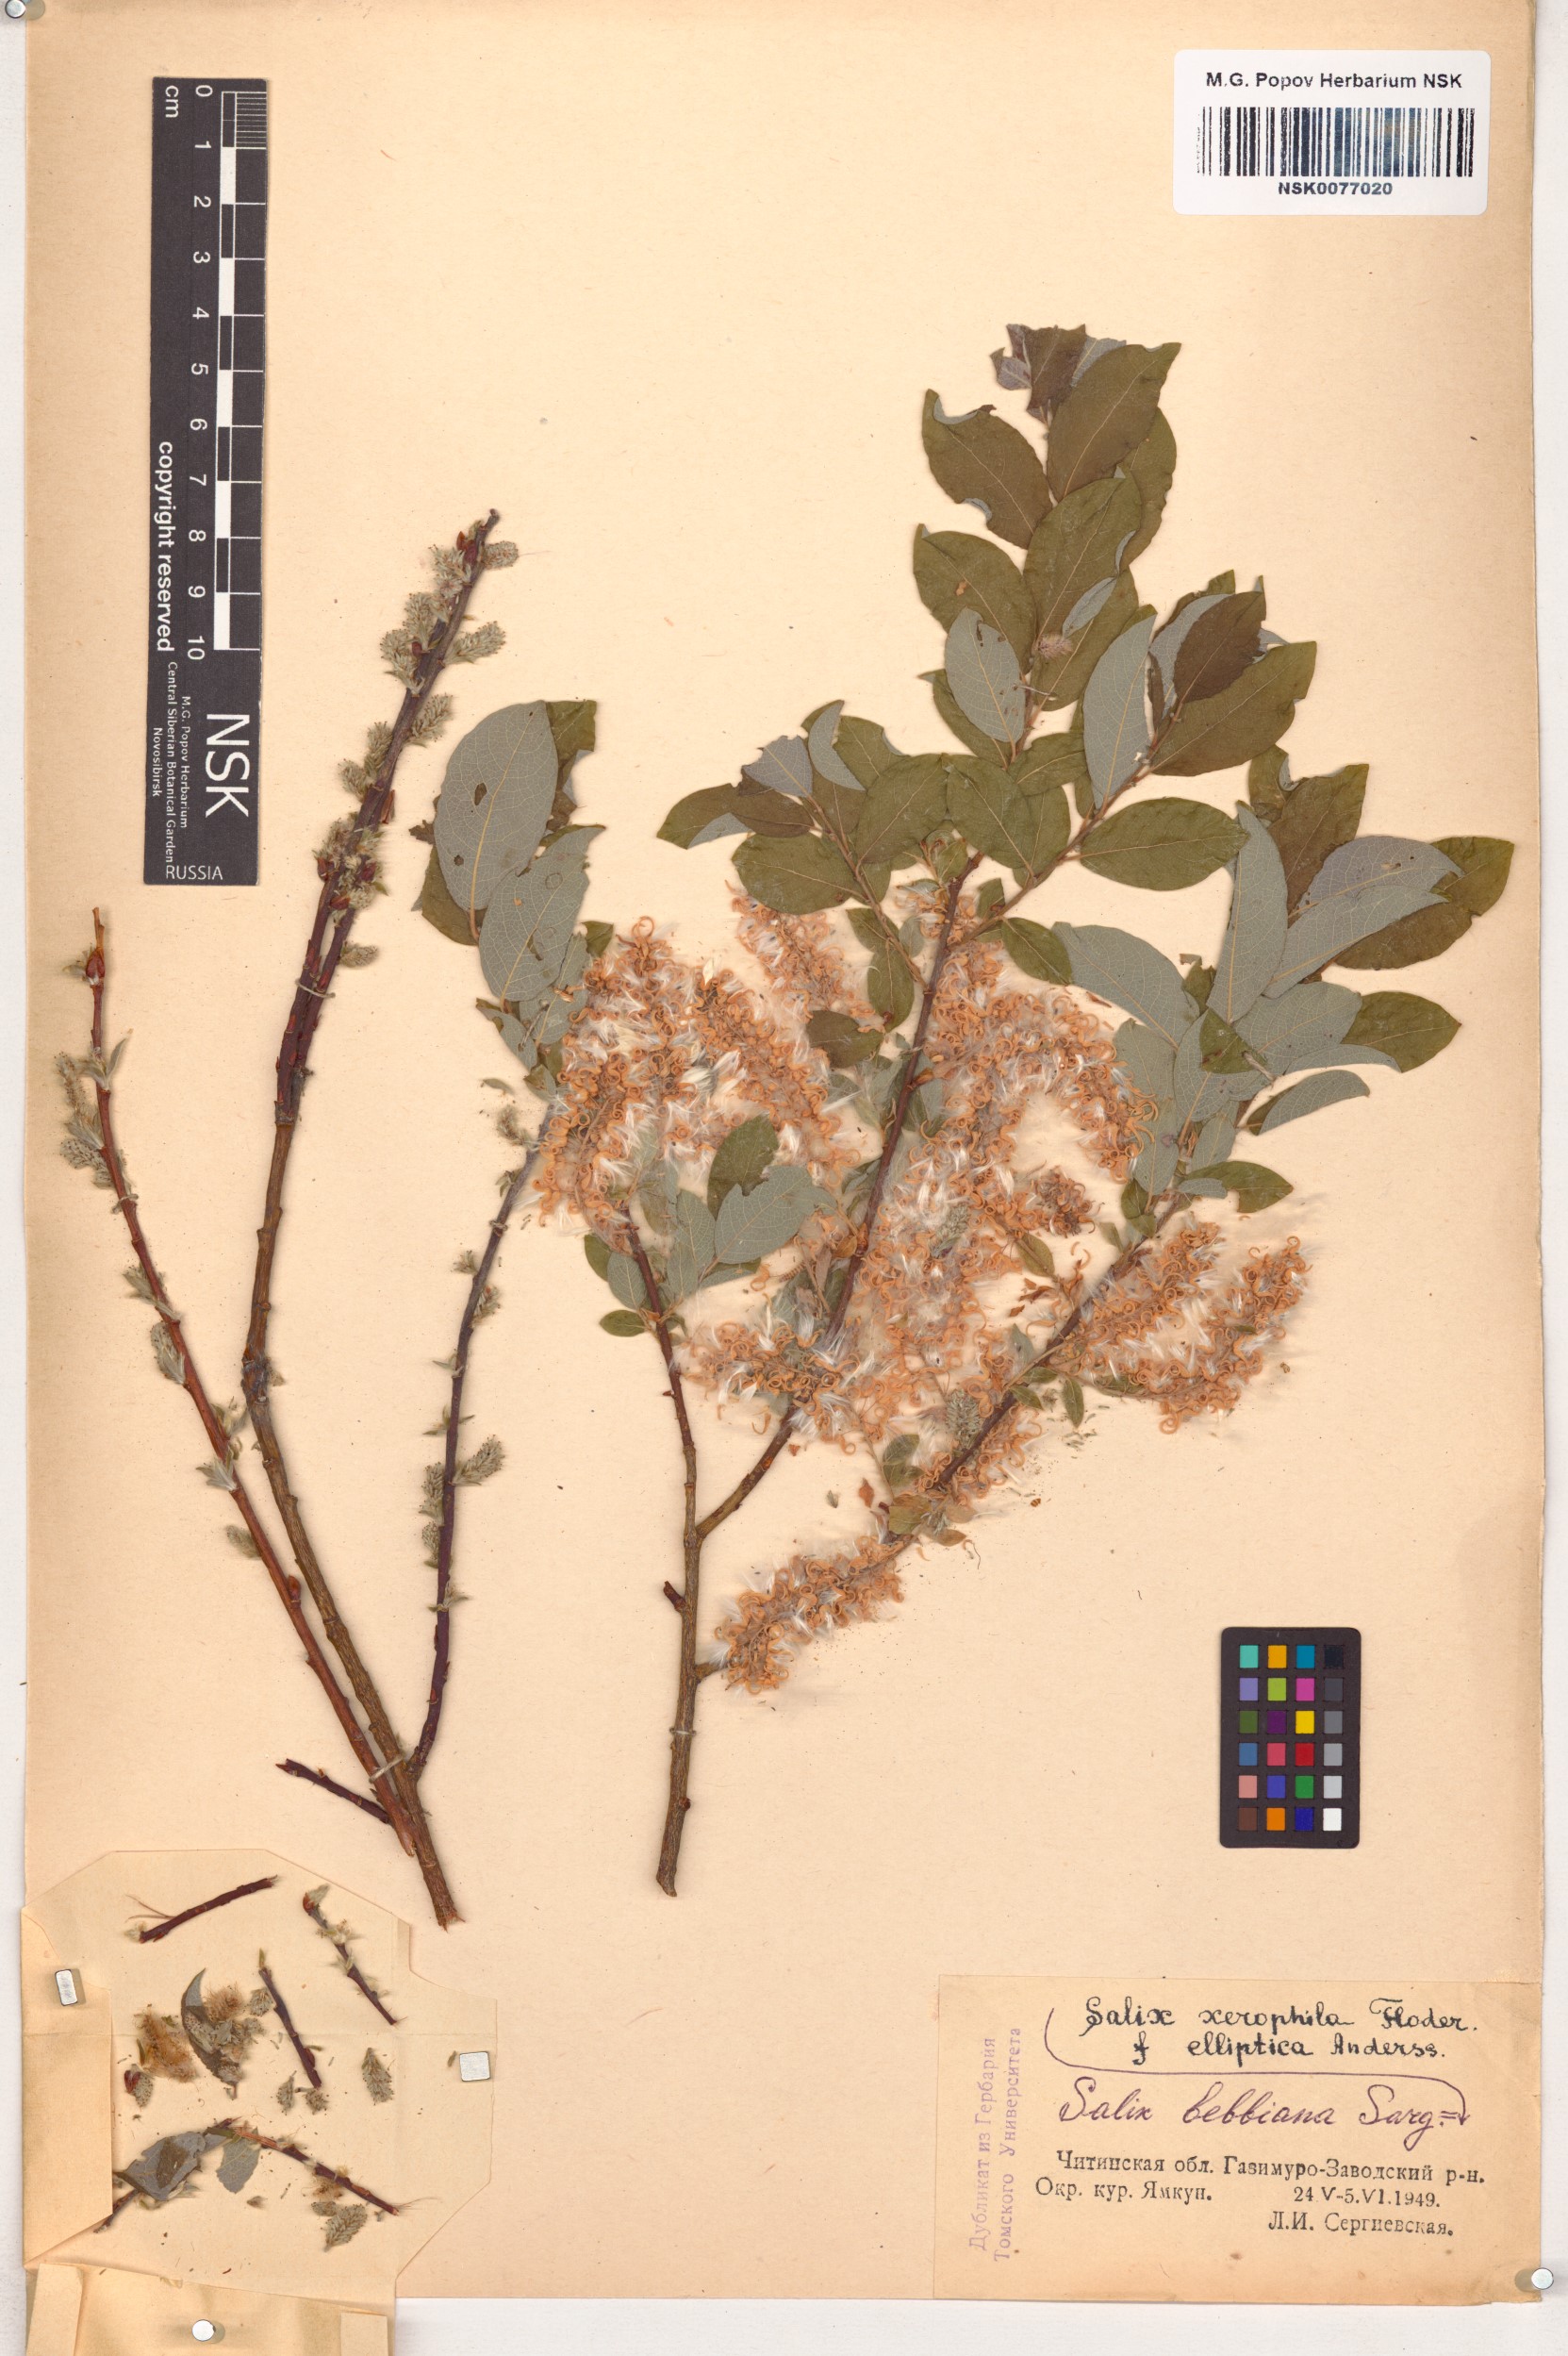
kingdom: Plantae
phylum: Tracheophyta
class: Magnoliopsida
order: Malpighiales
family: Salicaceae
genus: Salix
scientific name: Salix bebbiana
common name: Bebb's willow
